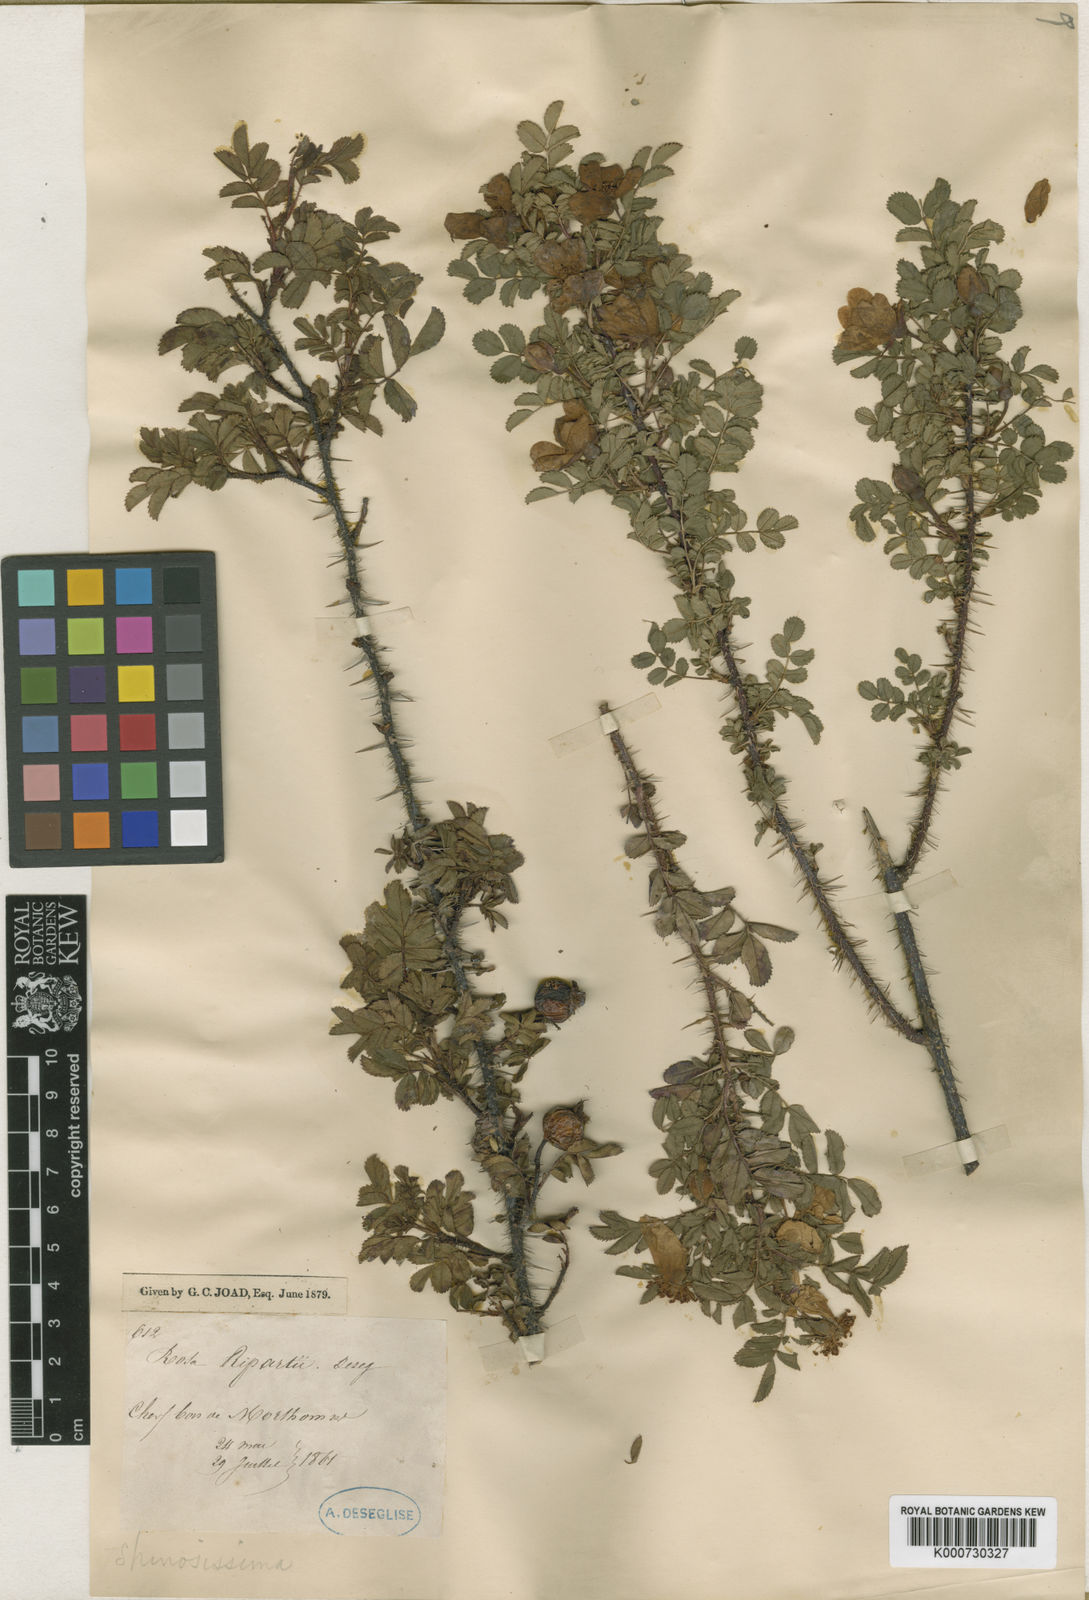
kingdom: Plantae
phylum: Tracheophyta
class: Magnoliopsida
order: Rosales
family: Rosaceae
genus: Rosa
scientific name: Rosa spinosissima
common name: Burnet rose
